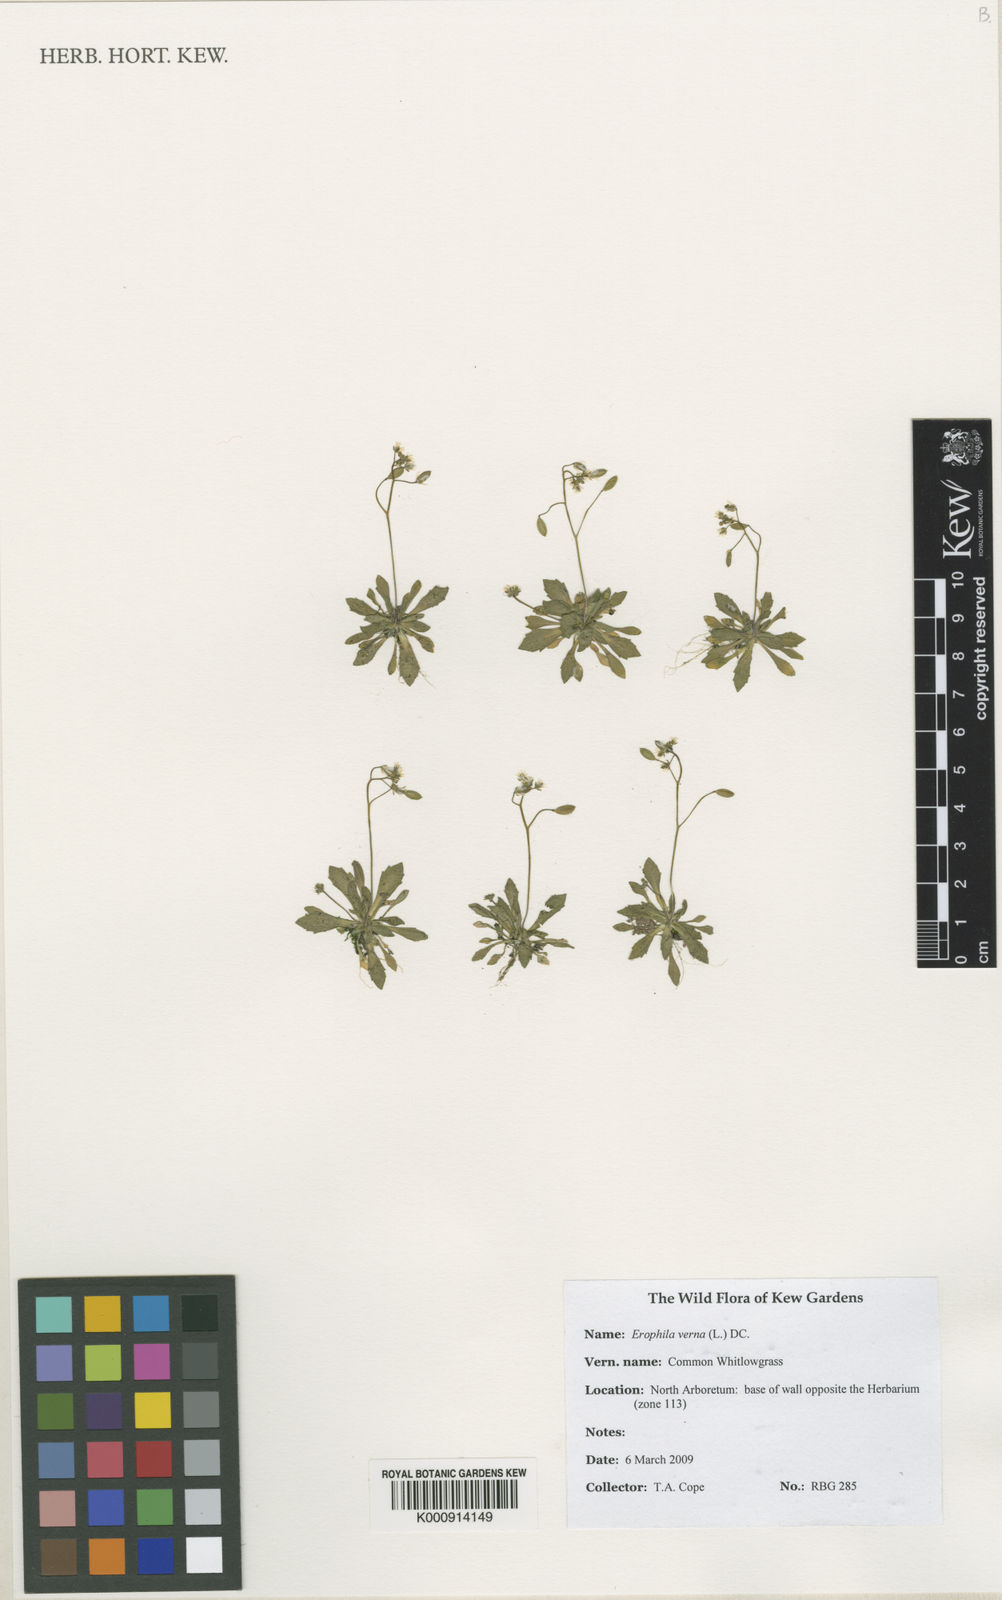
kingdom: Plantae
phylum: Tracheophyta
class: Magnoliopsida
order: Brassicales
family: Brassicaceae
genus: Draba
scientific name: Draba verna
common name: Spring draba
